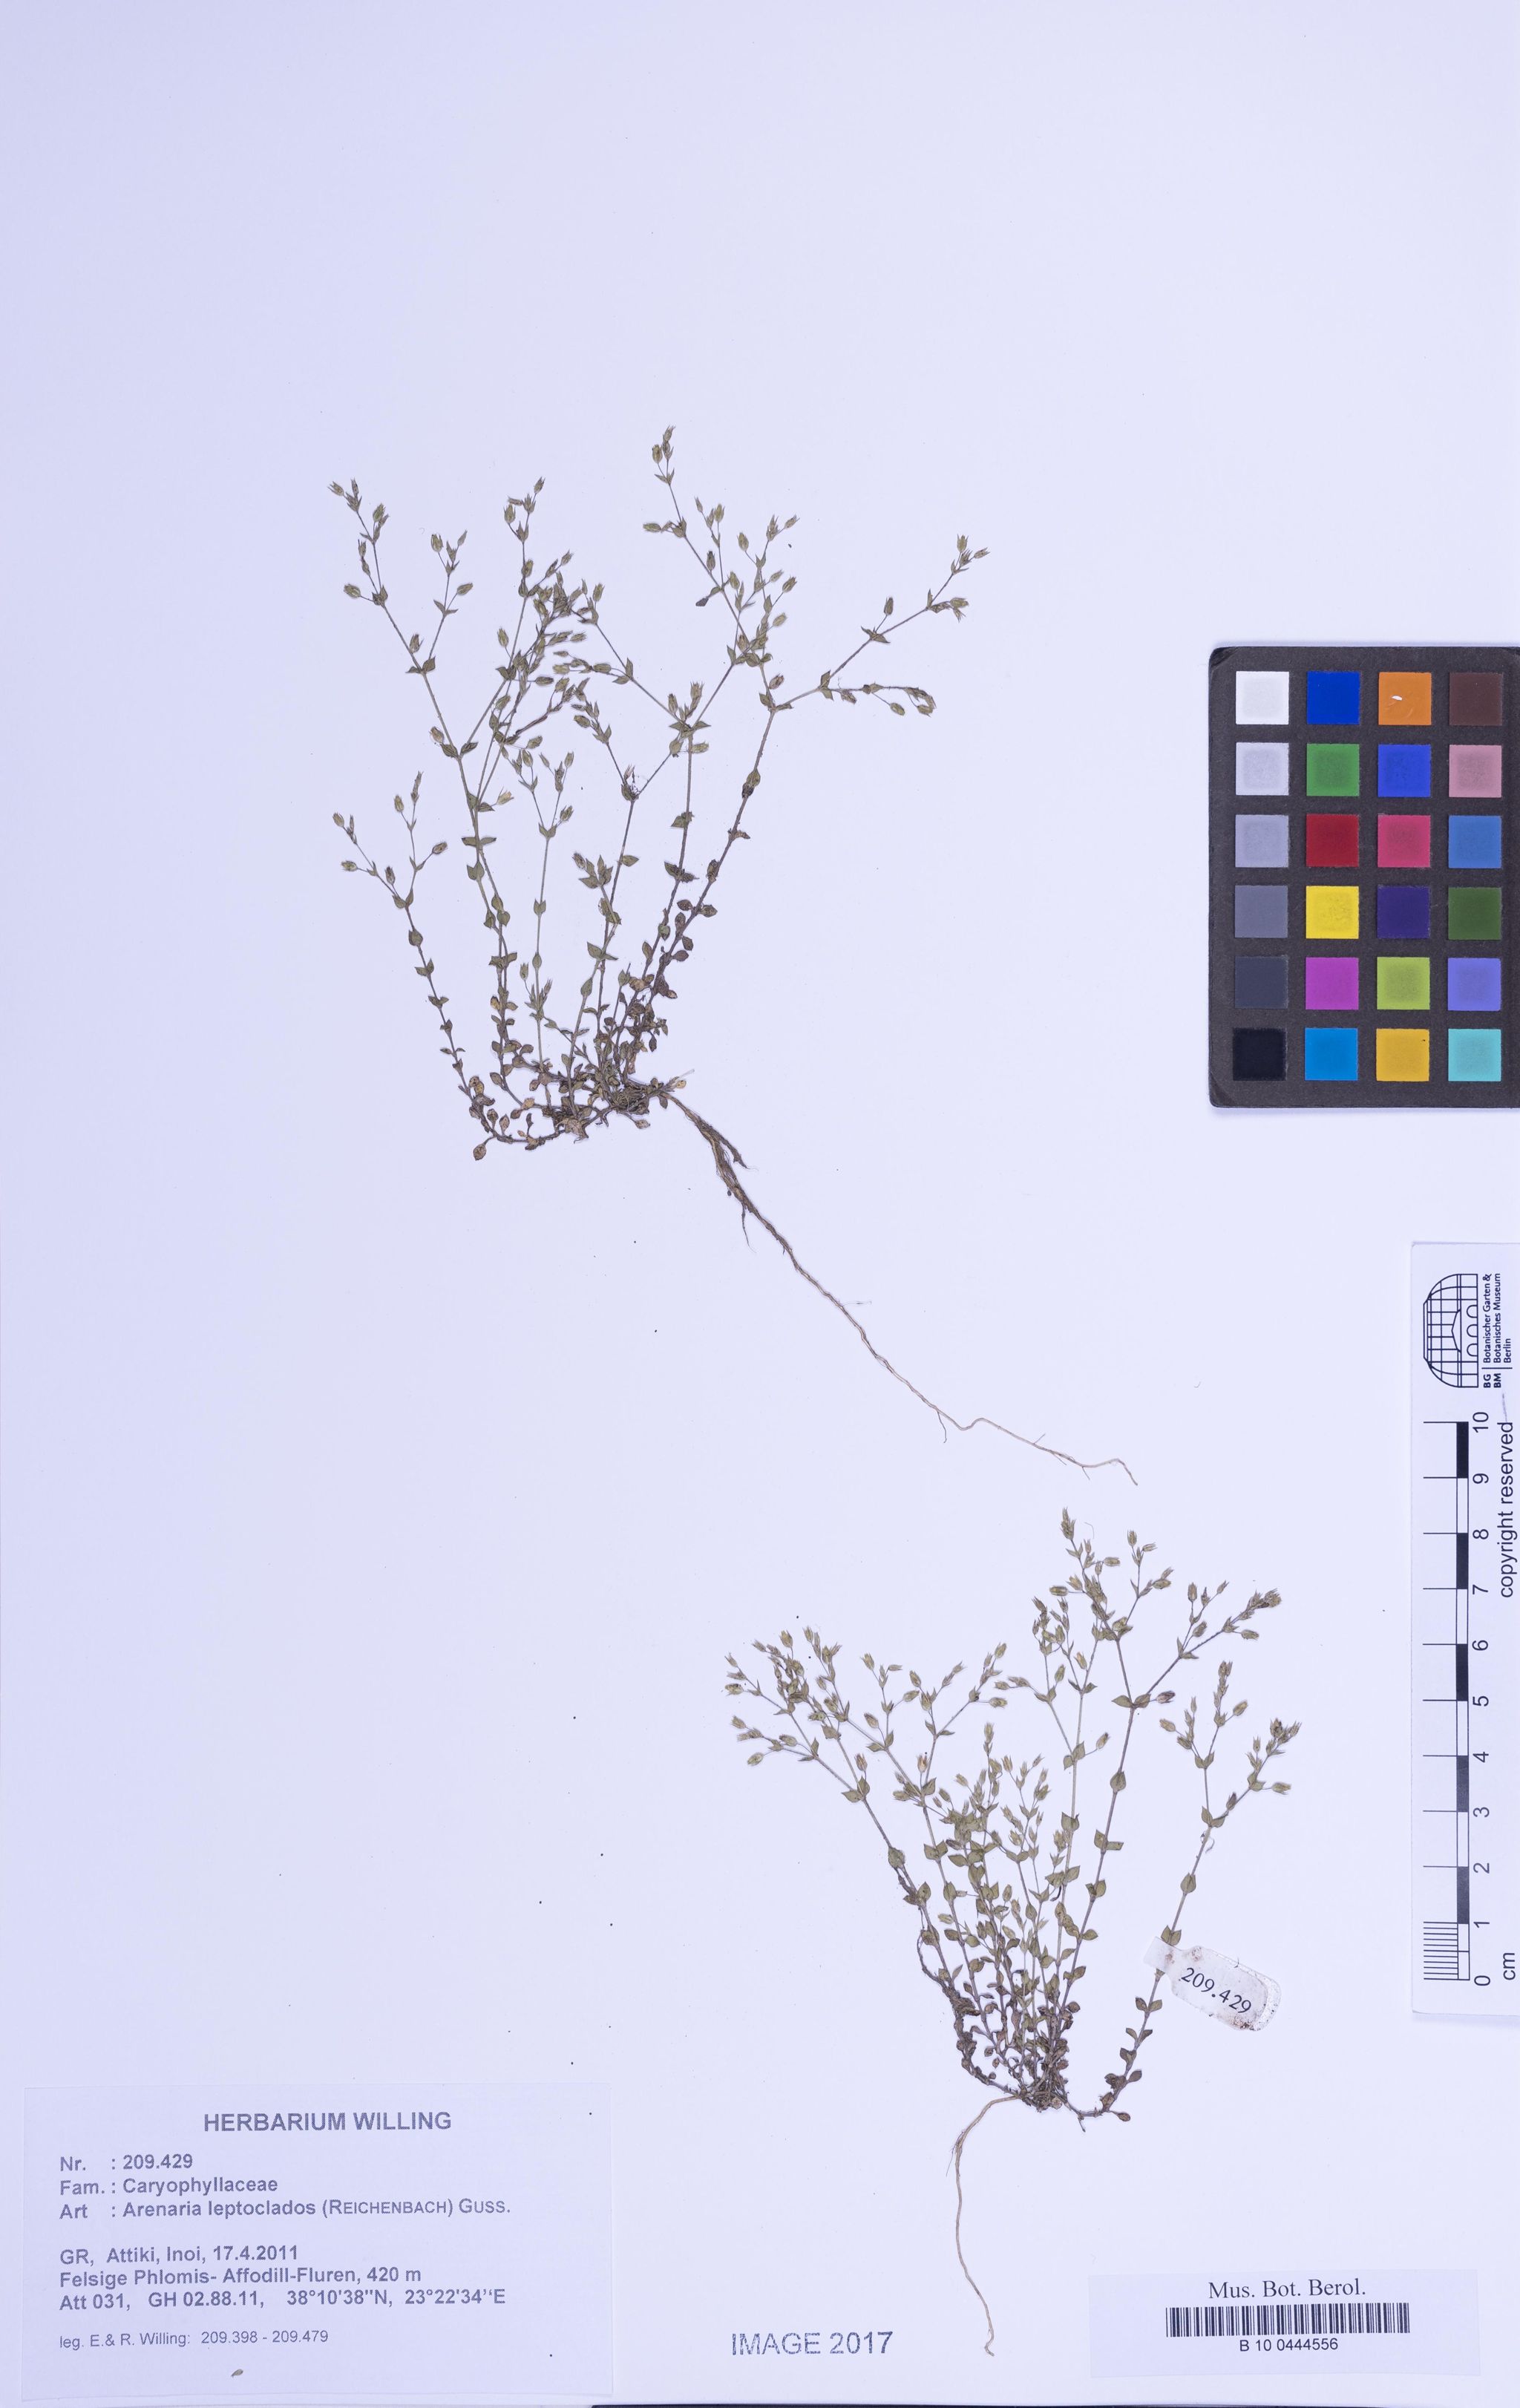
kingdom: Plantae
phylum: Tracheophyta
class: Magnoliopsida
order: Caryophyllales
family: Caryophyllaceae
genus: Arenaria
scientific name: Arenaria leptoclados
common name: Thyme-leaved sandwort
